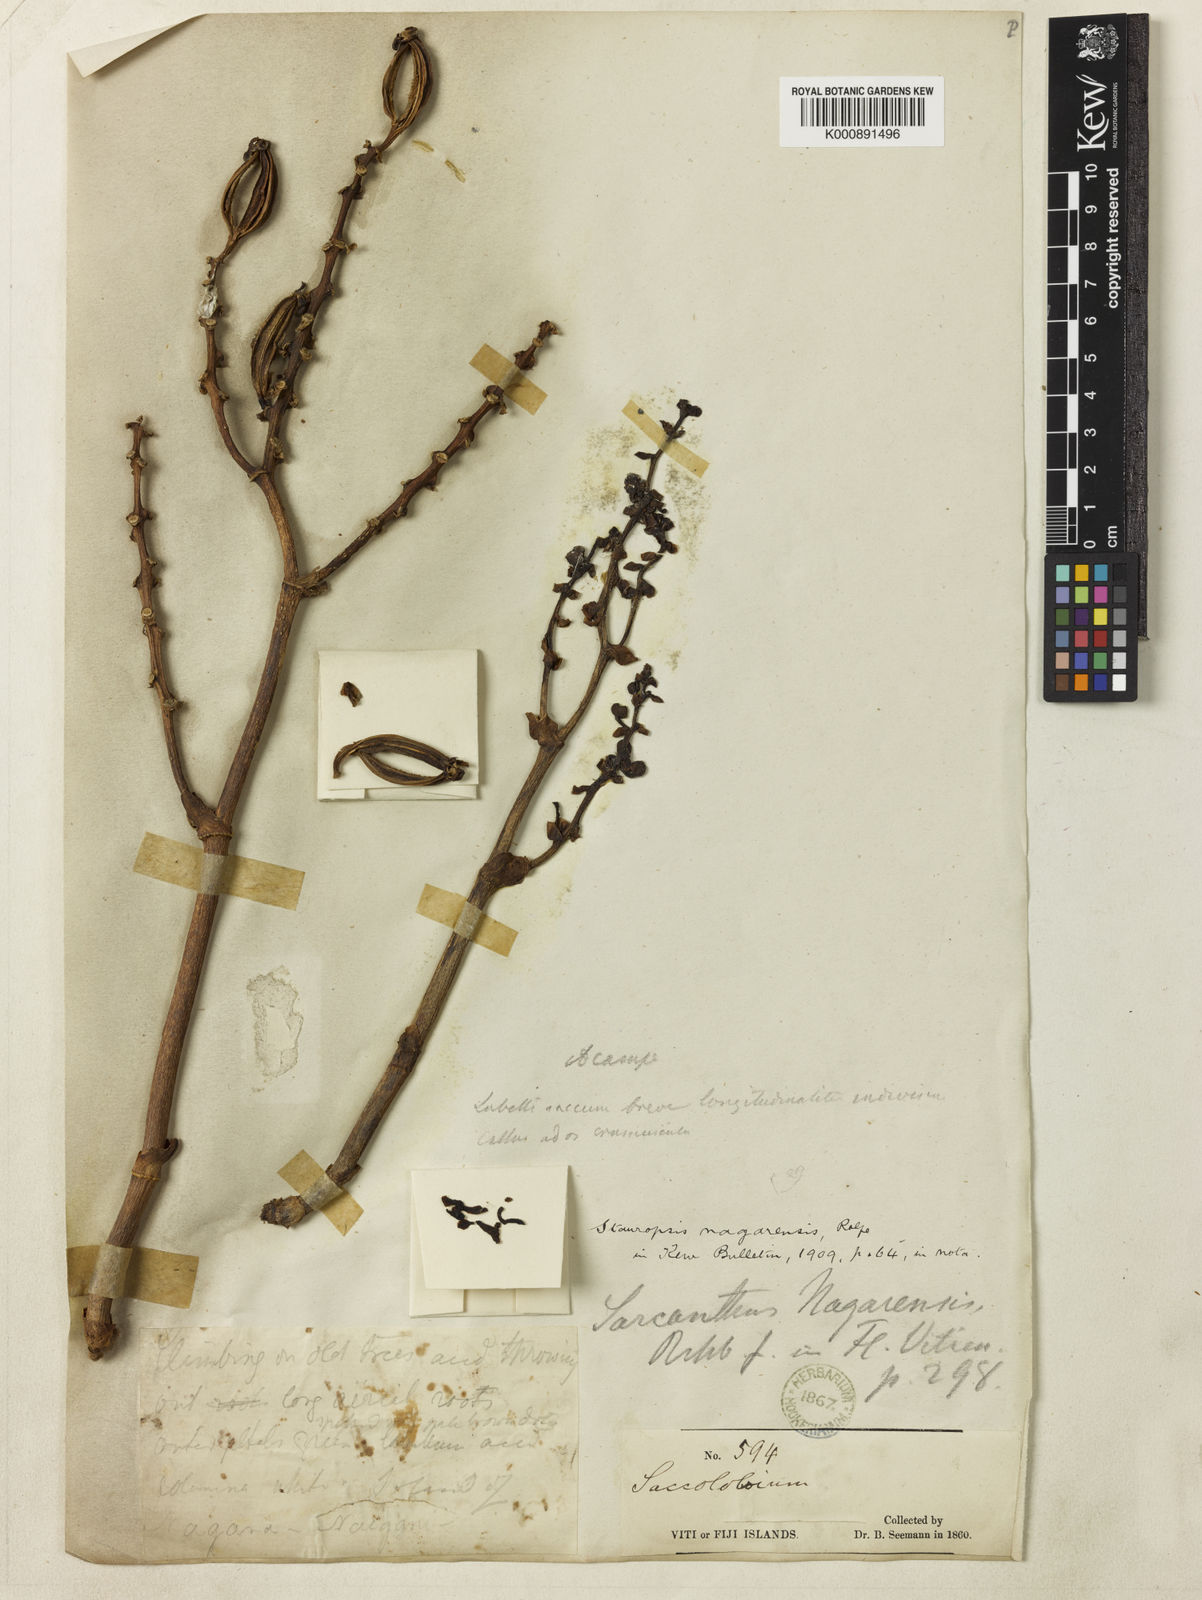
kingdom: Plantae
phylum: Tracheophyta
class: Liliopsida
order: Asparagales
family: Orchidaceae
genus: Sarcanthopsis
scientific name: Sarcanthopsis nagarensis
